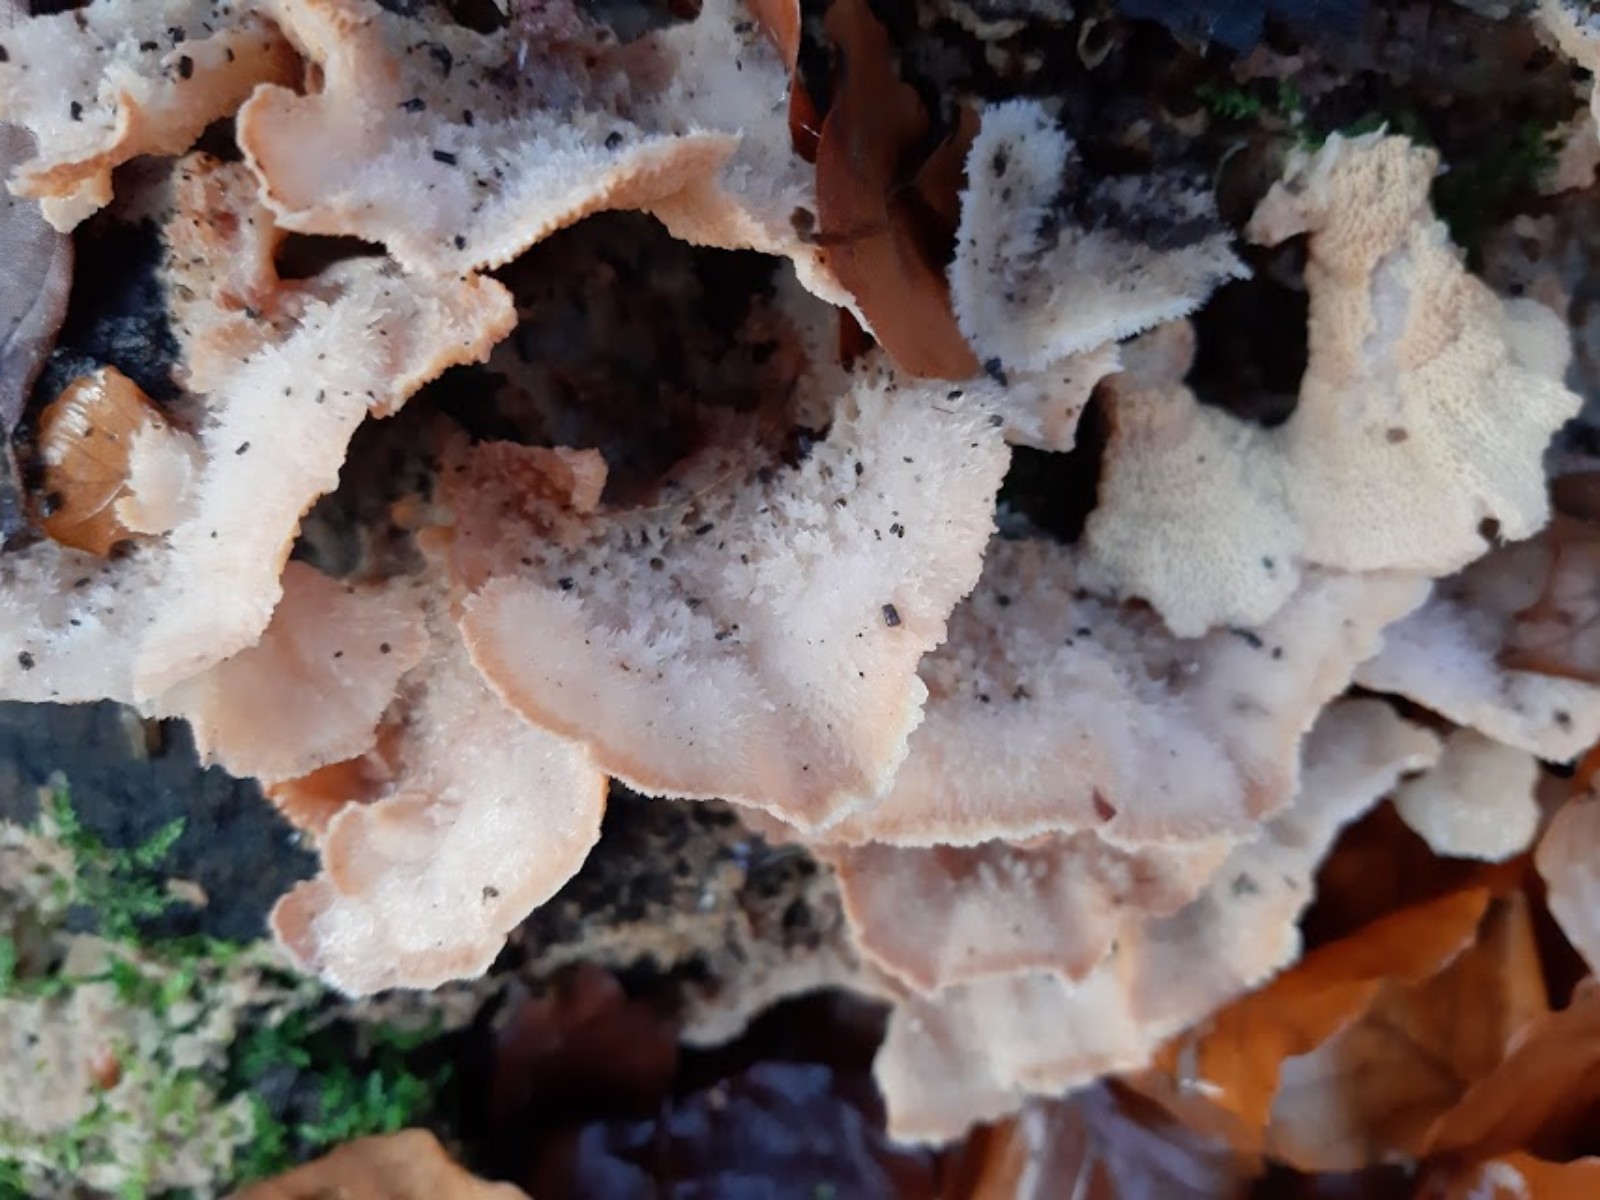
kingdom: Fungi
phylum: Basidiomycota
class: Agaricomycetes
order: Polyporales
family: Meruliaceae
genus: Phlebia
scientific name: Phlebia tremellosa
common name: bævrende åresvamp
